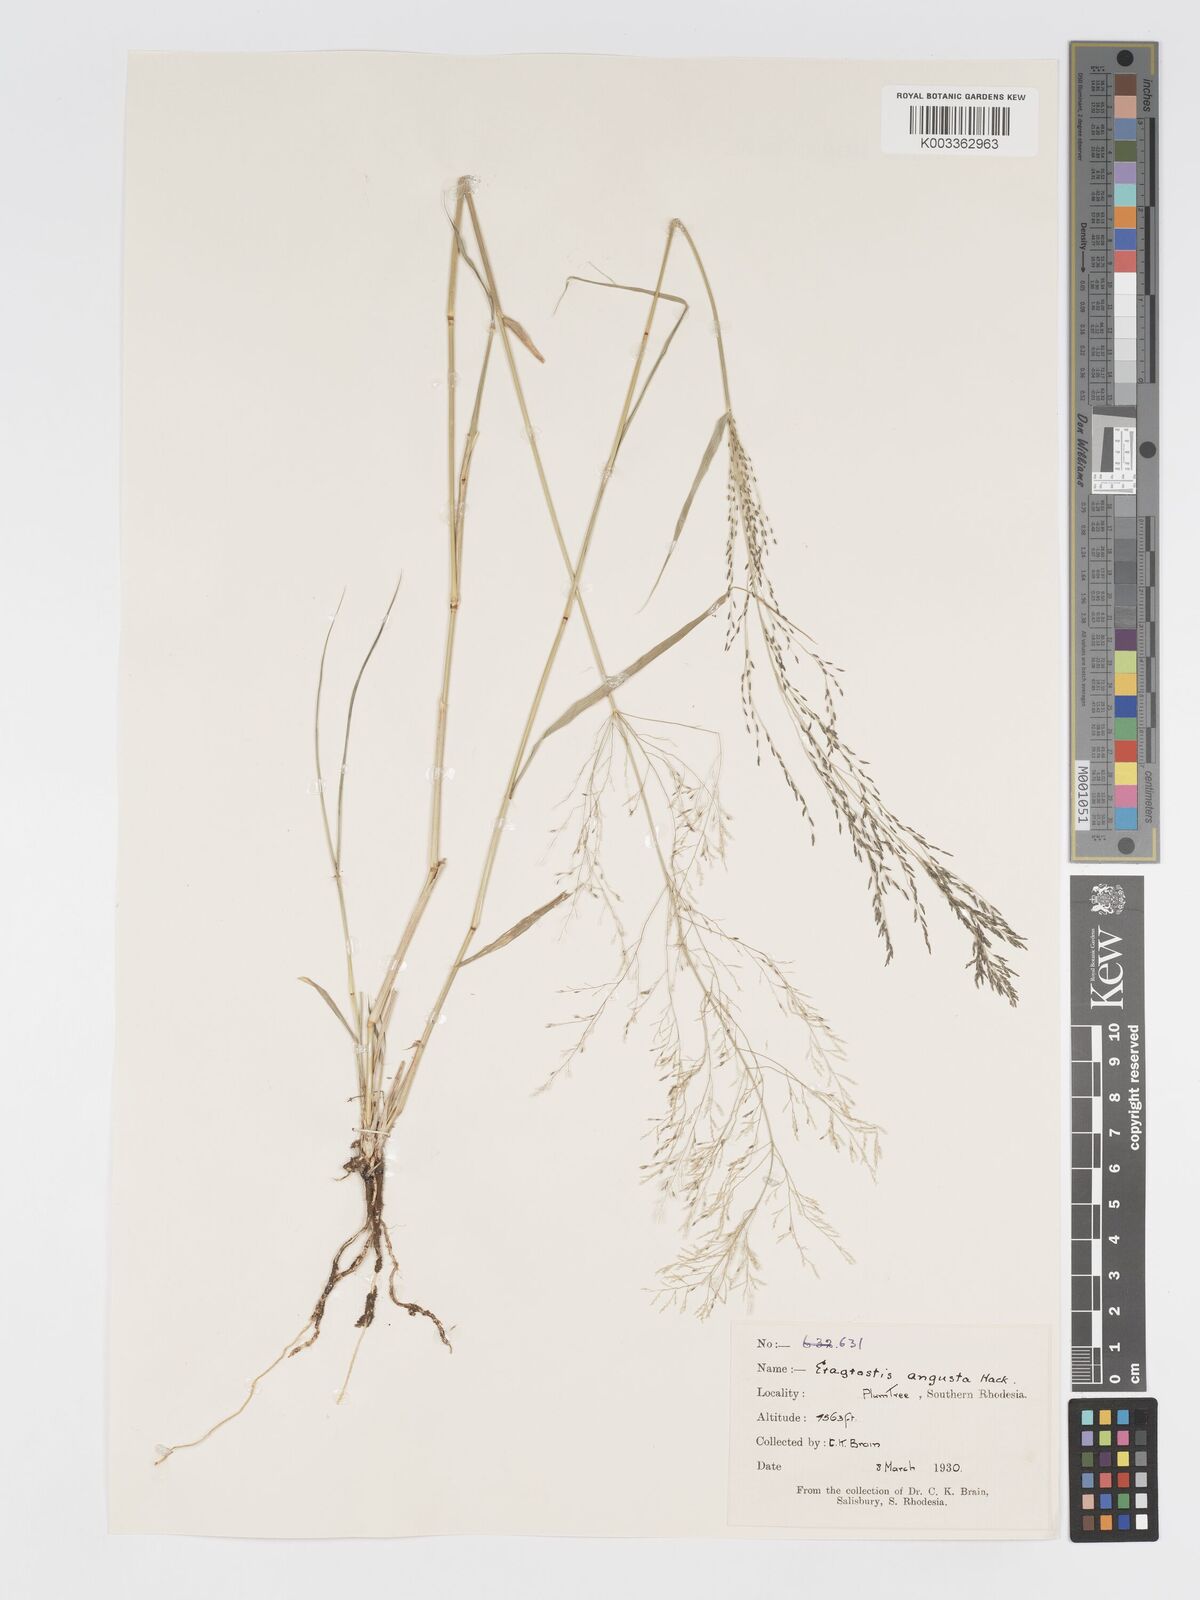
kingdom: Plantae
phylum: Tracheophyta
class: Liliopsida
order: Poales
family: Poaceae
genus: Eragrostis
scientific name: Eragrostis cylindriflora
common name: Cylinderflower lovegrass
